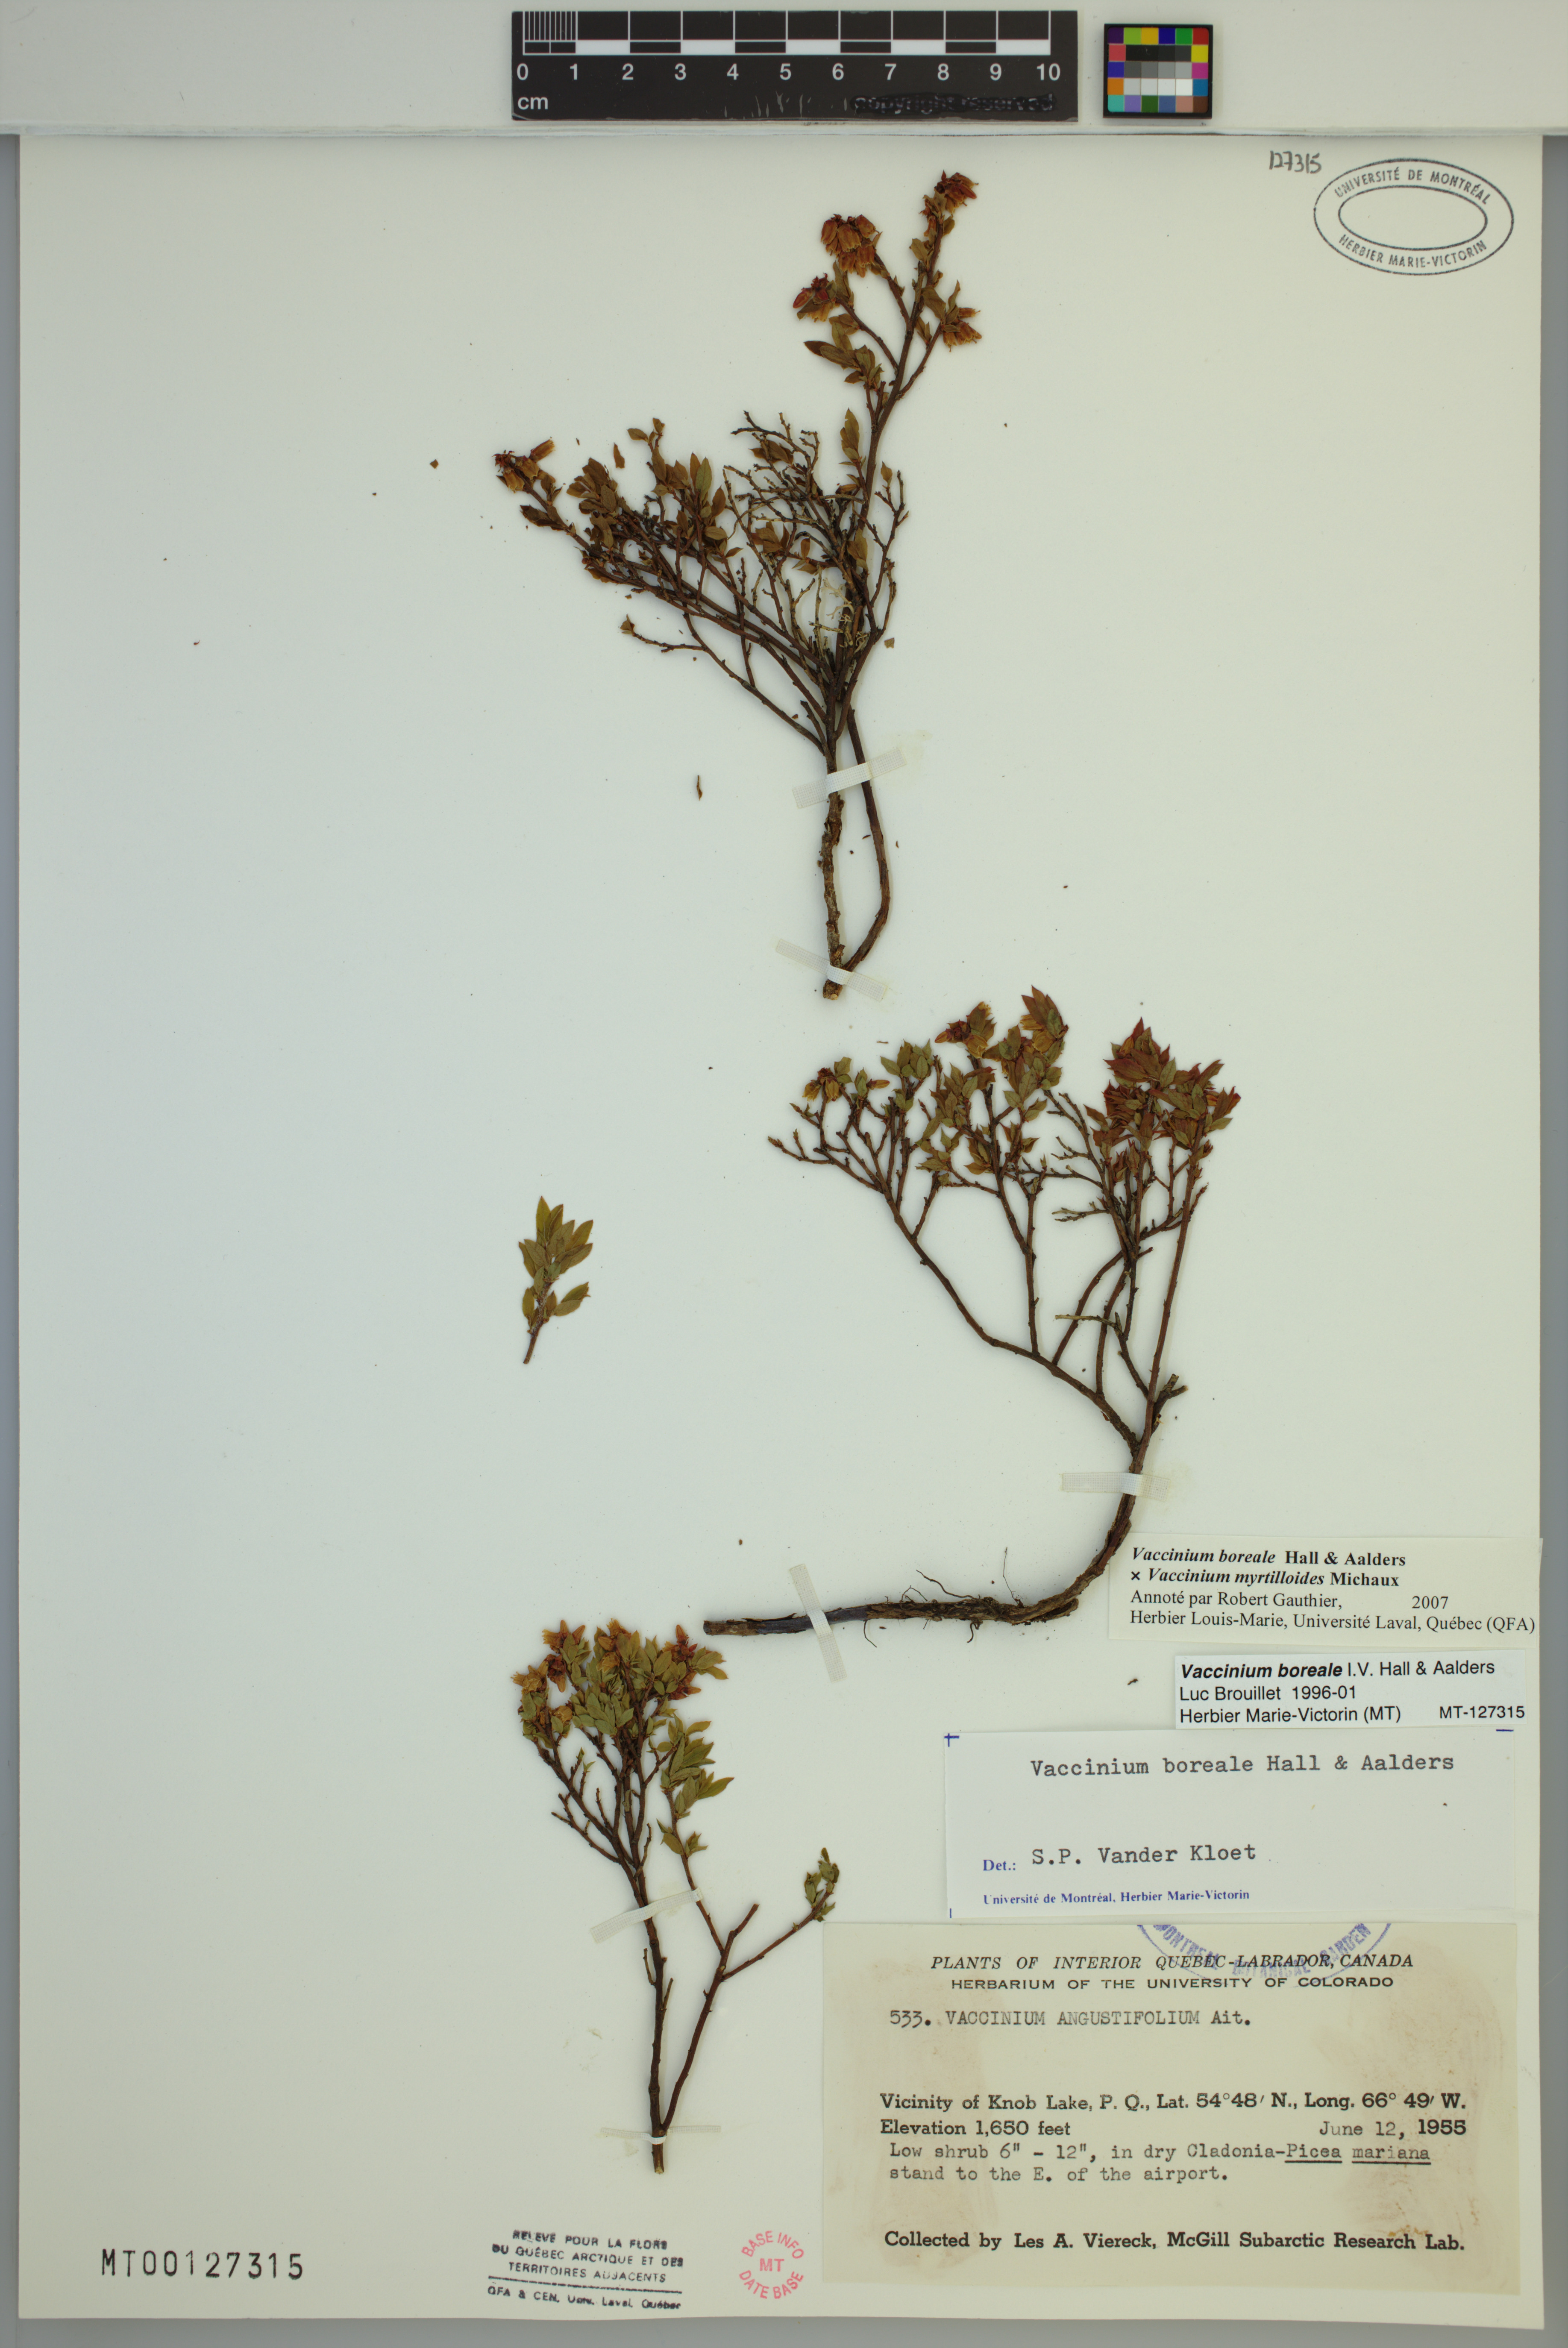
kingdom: Plantae
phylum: Tracheophyta
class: Magnoliopsida
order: Ericales
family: Ericaceae
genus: Vaccinium
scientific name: Vaccinium boreale
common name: Northern blueberry
